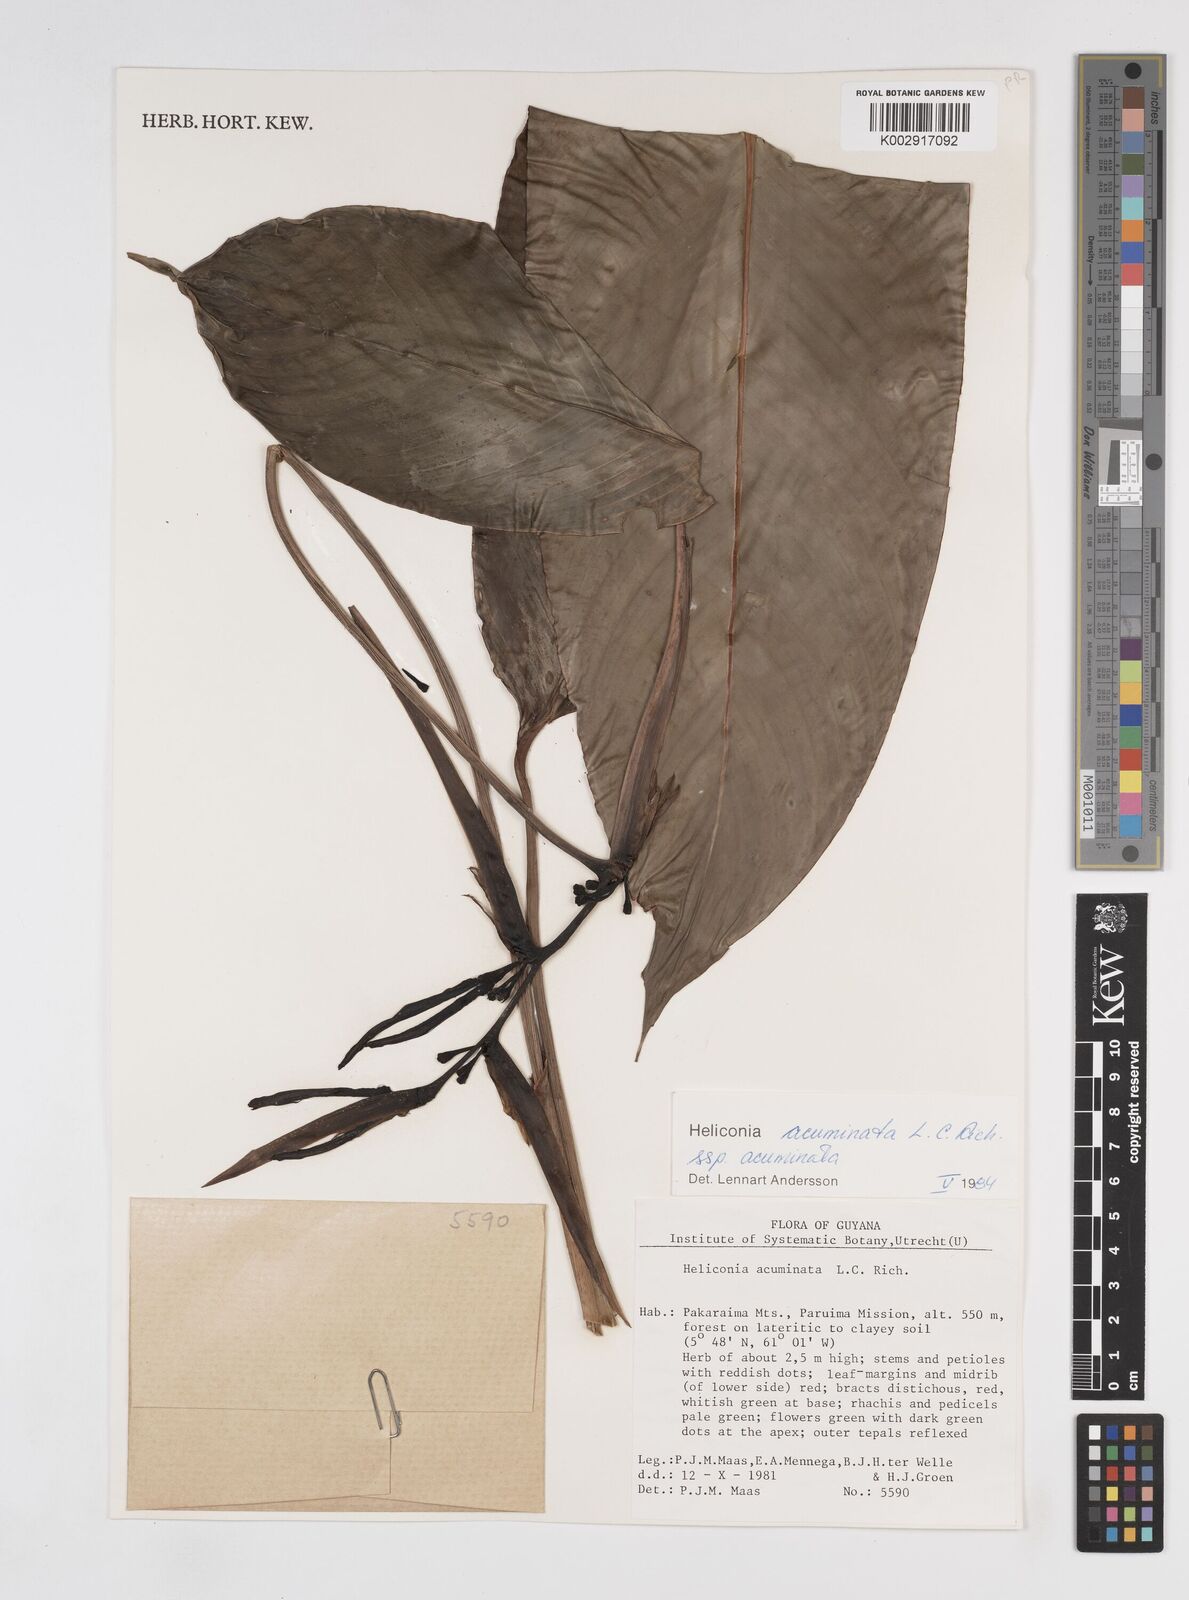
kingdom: Plantae
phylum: Tracheophyta
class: Liliopsida
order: Zingiberales
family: Heliconiaceae
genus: Heliconia
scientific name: Heliconia acuminata
